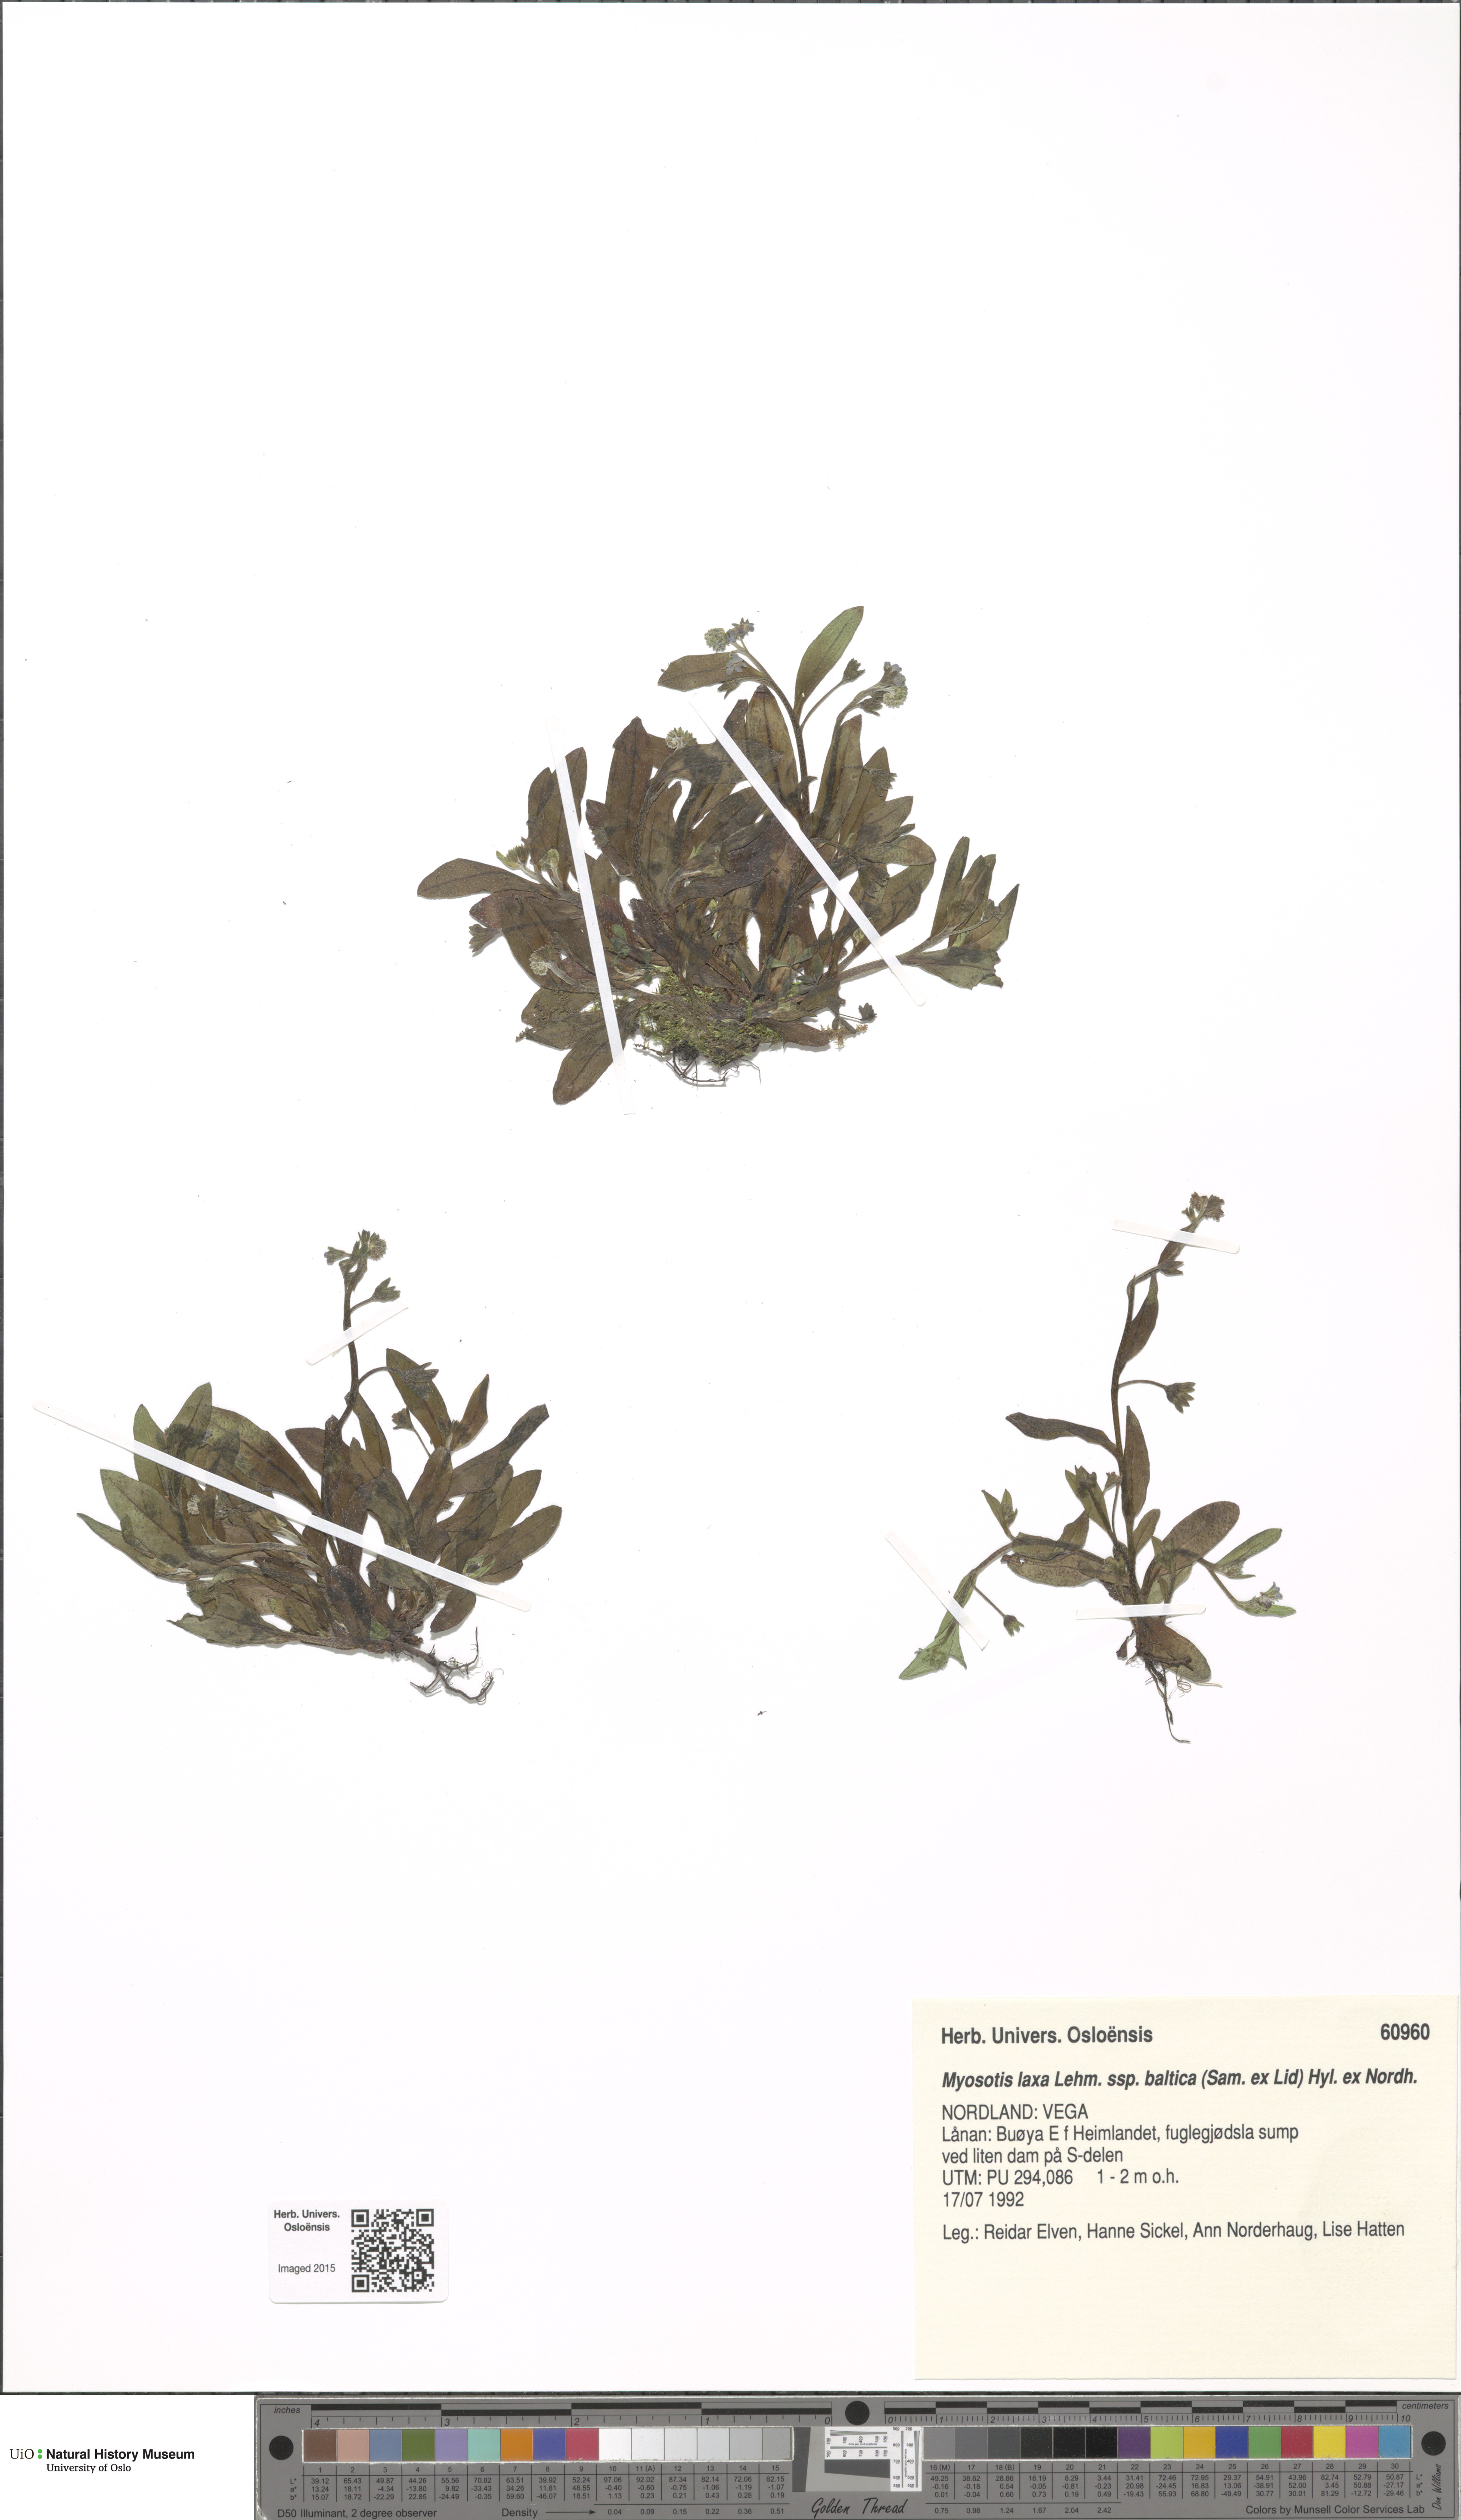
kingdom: Plantae
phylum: Tracheophyta
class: Magnoliopsida
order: Boraginales
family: Boraginaceae
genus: Myosotis
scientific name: Myosotis laxa
